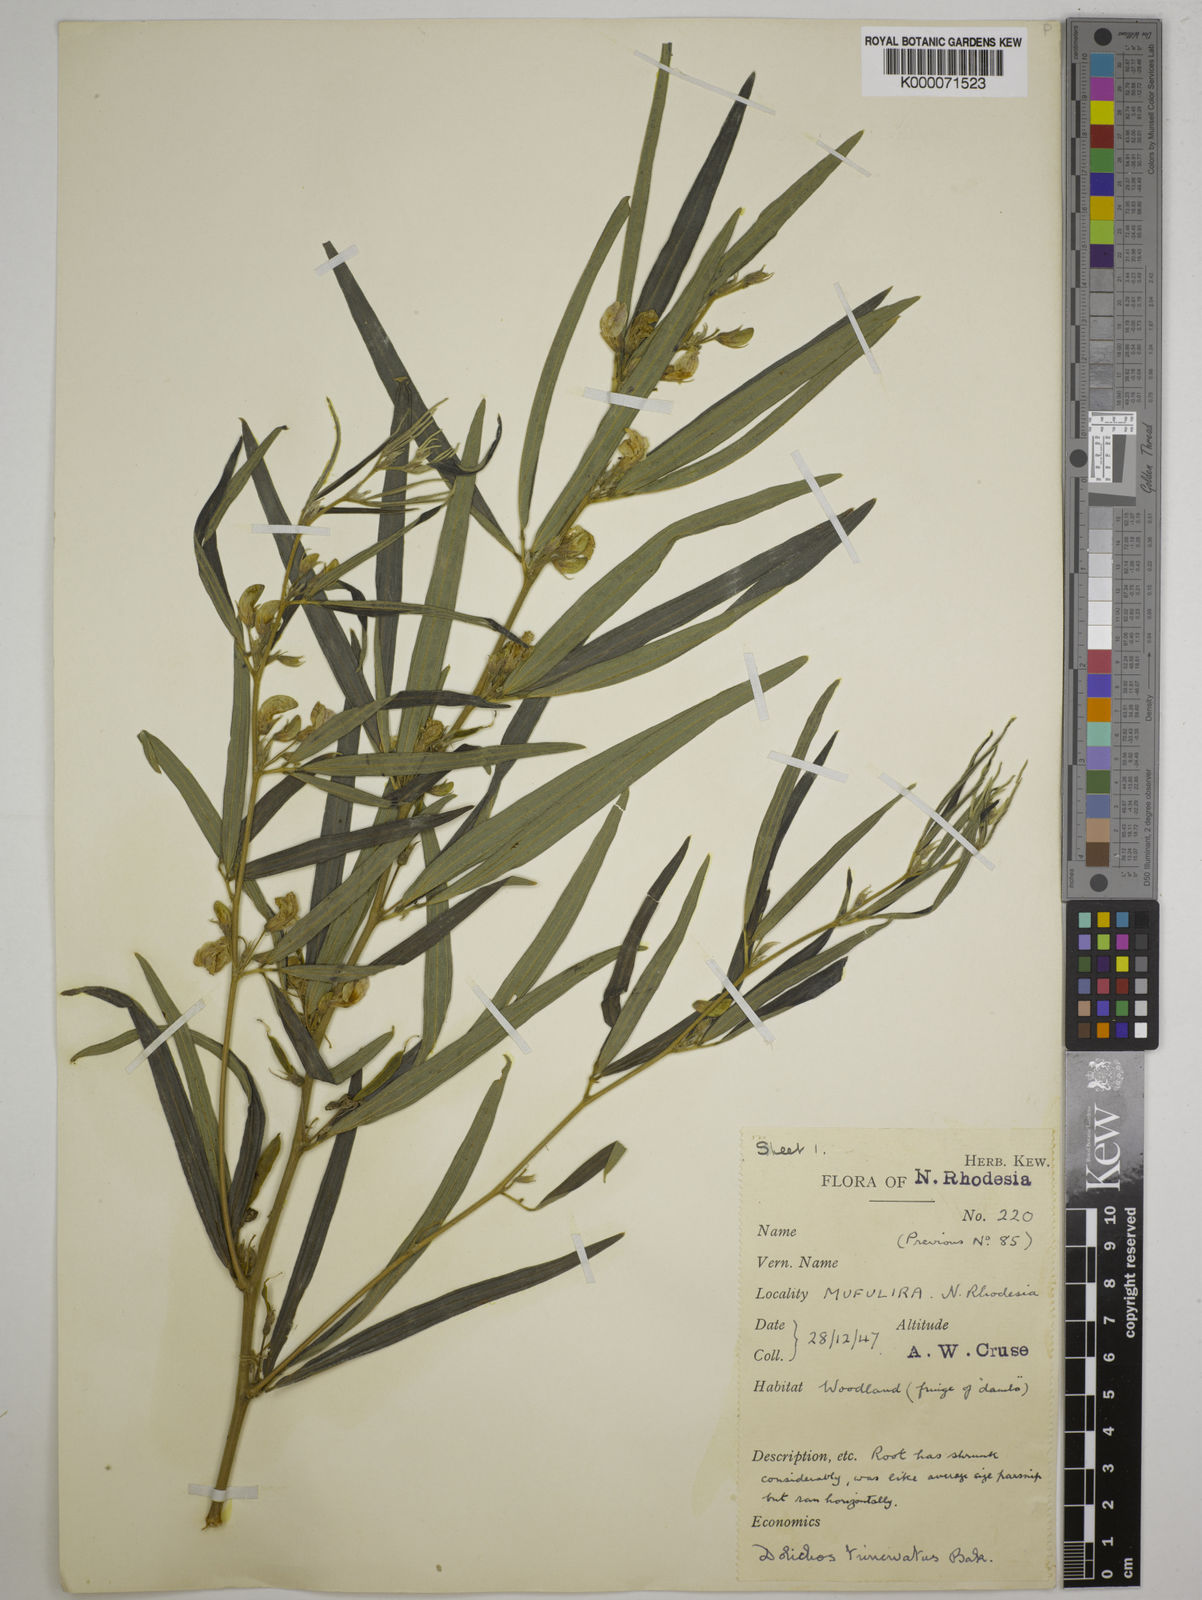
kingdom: Plantae
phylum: Tracheophyta
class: Magnoliopsida
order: Fabales
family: Fabaceae
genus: Dolichos
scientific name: Dolichos trinervatus
